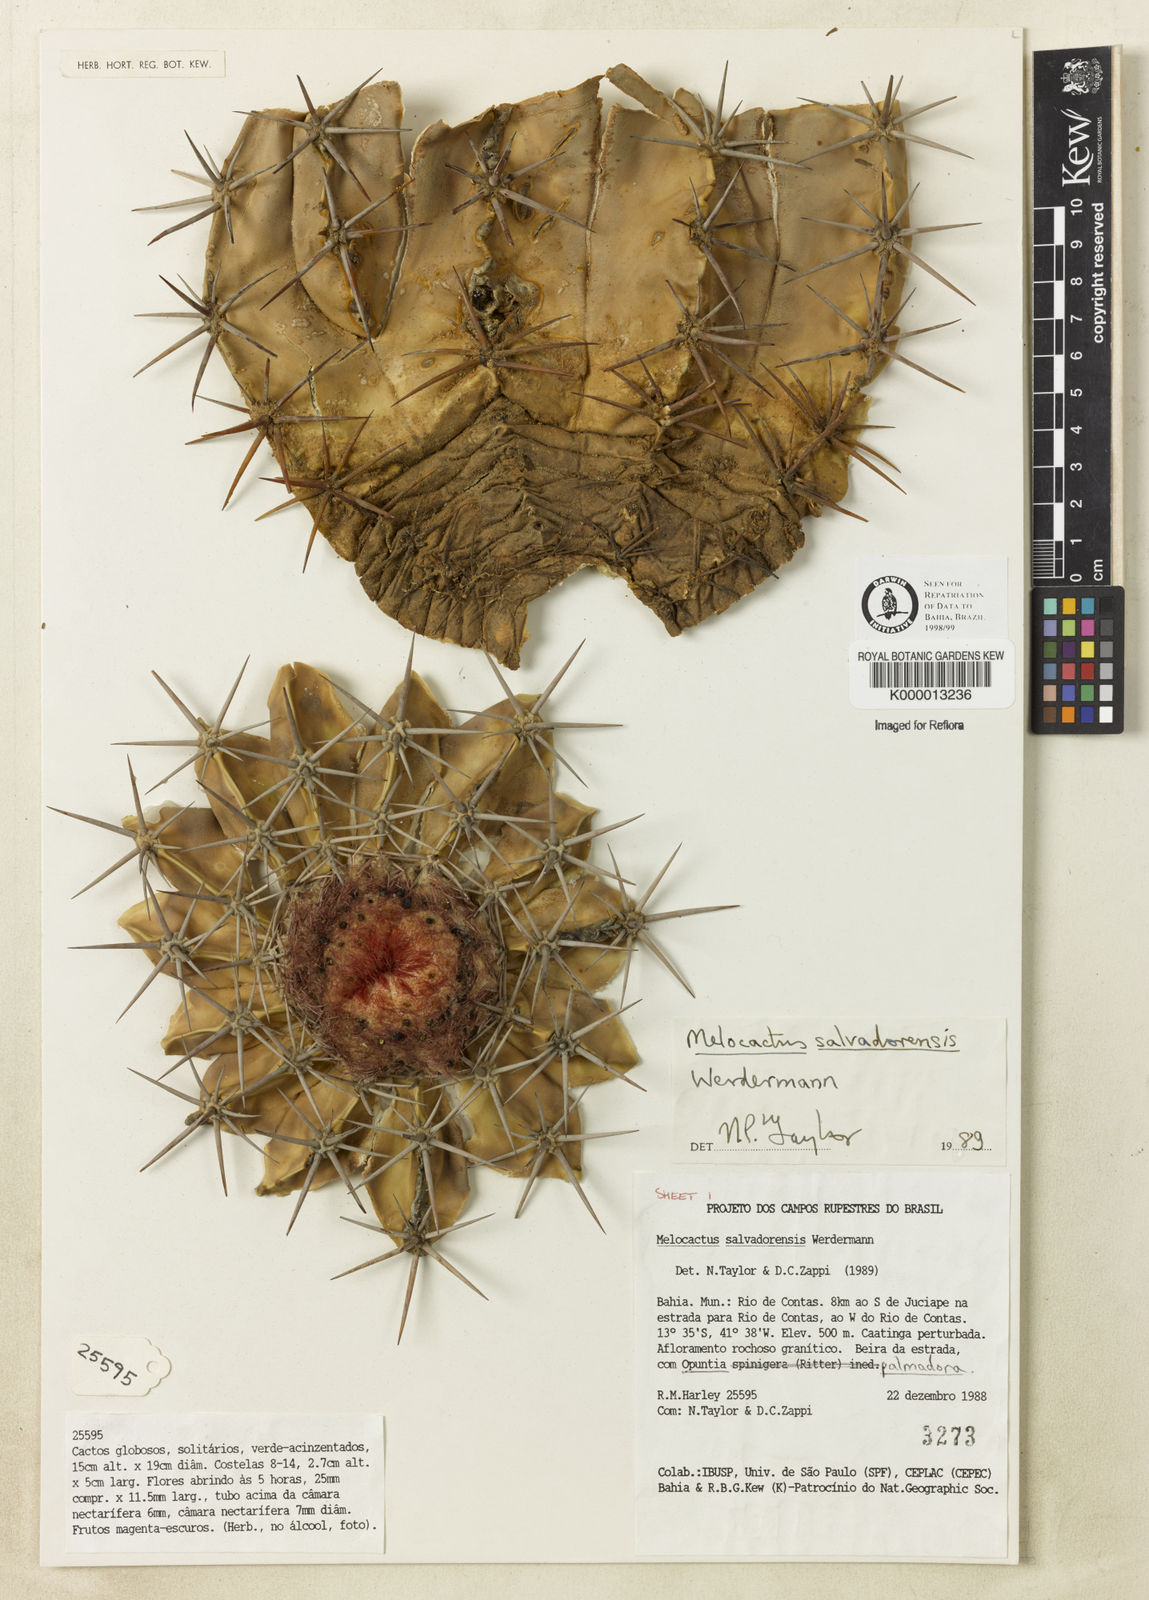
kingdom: Plantae
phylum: Tracheophyta
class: Magnoliopsida
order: Caryophyllales
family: Cactaceae
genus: Melocactus
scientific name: Melocactus salvadorensis
